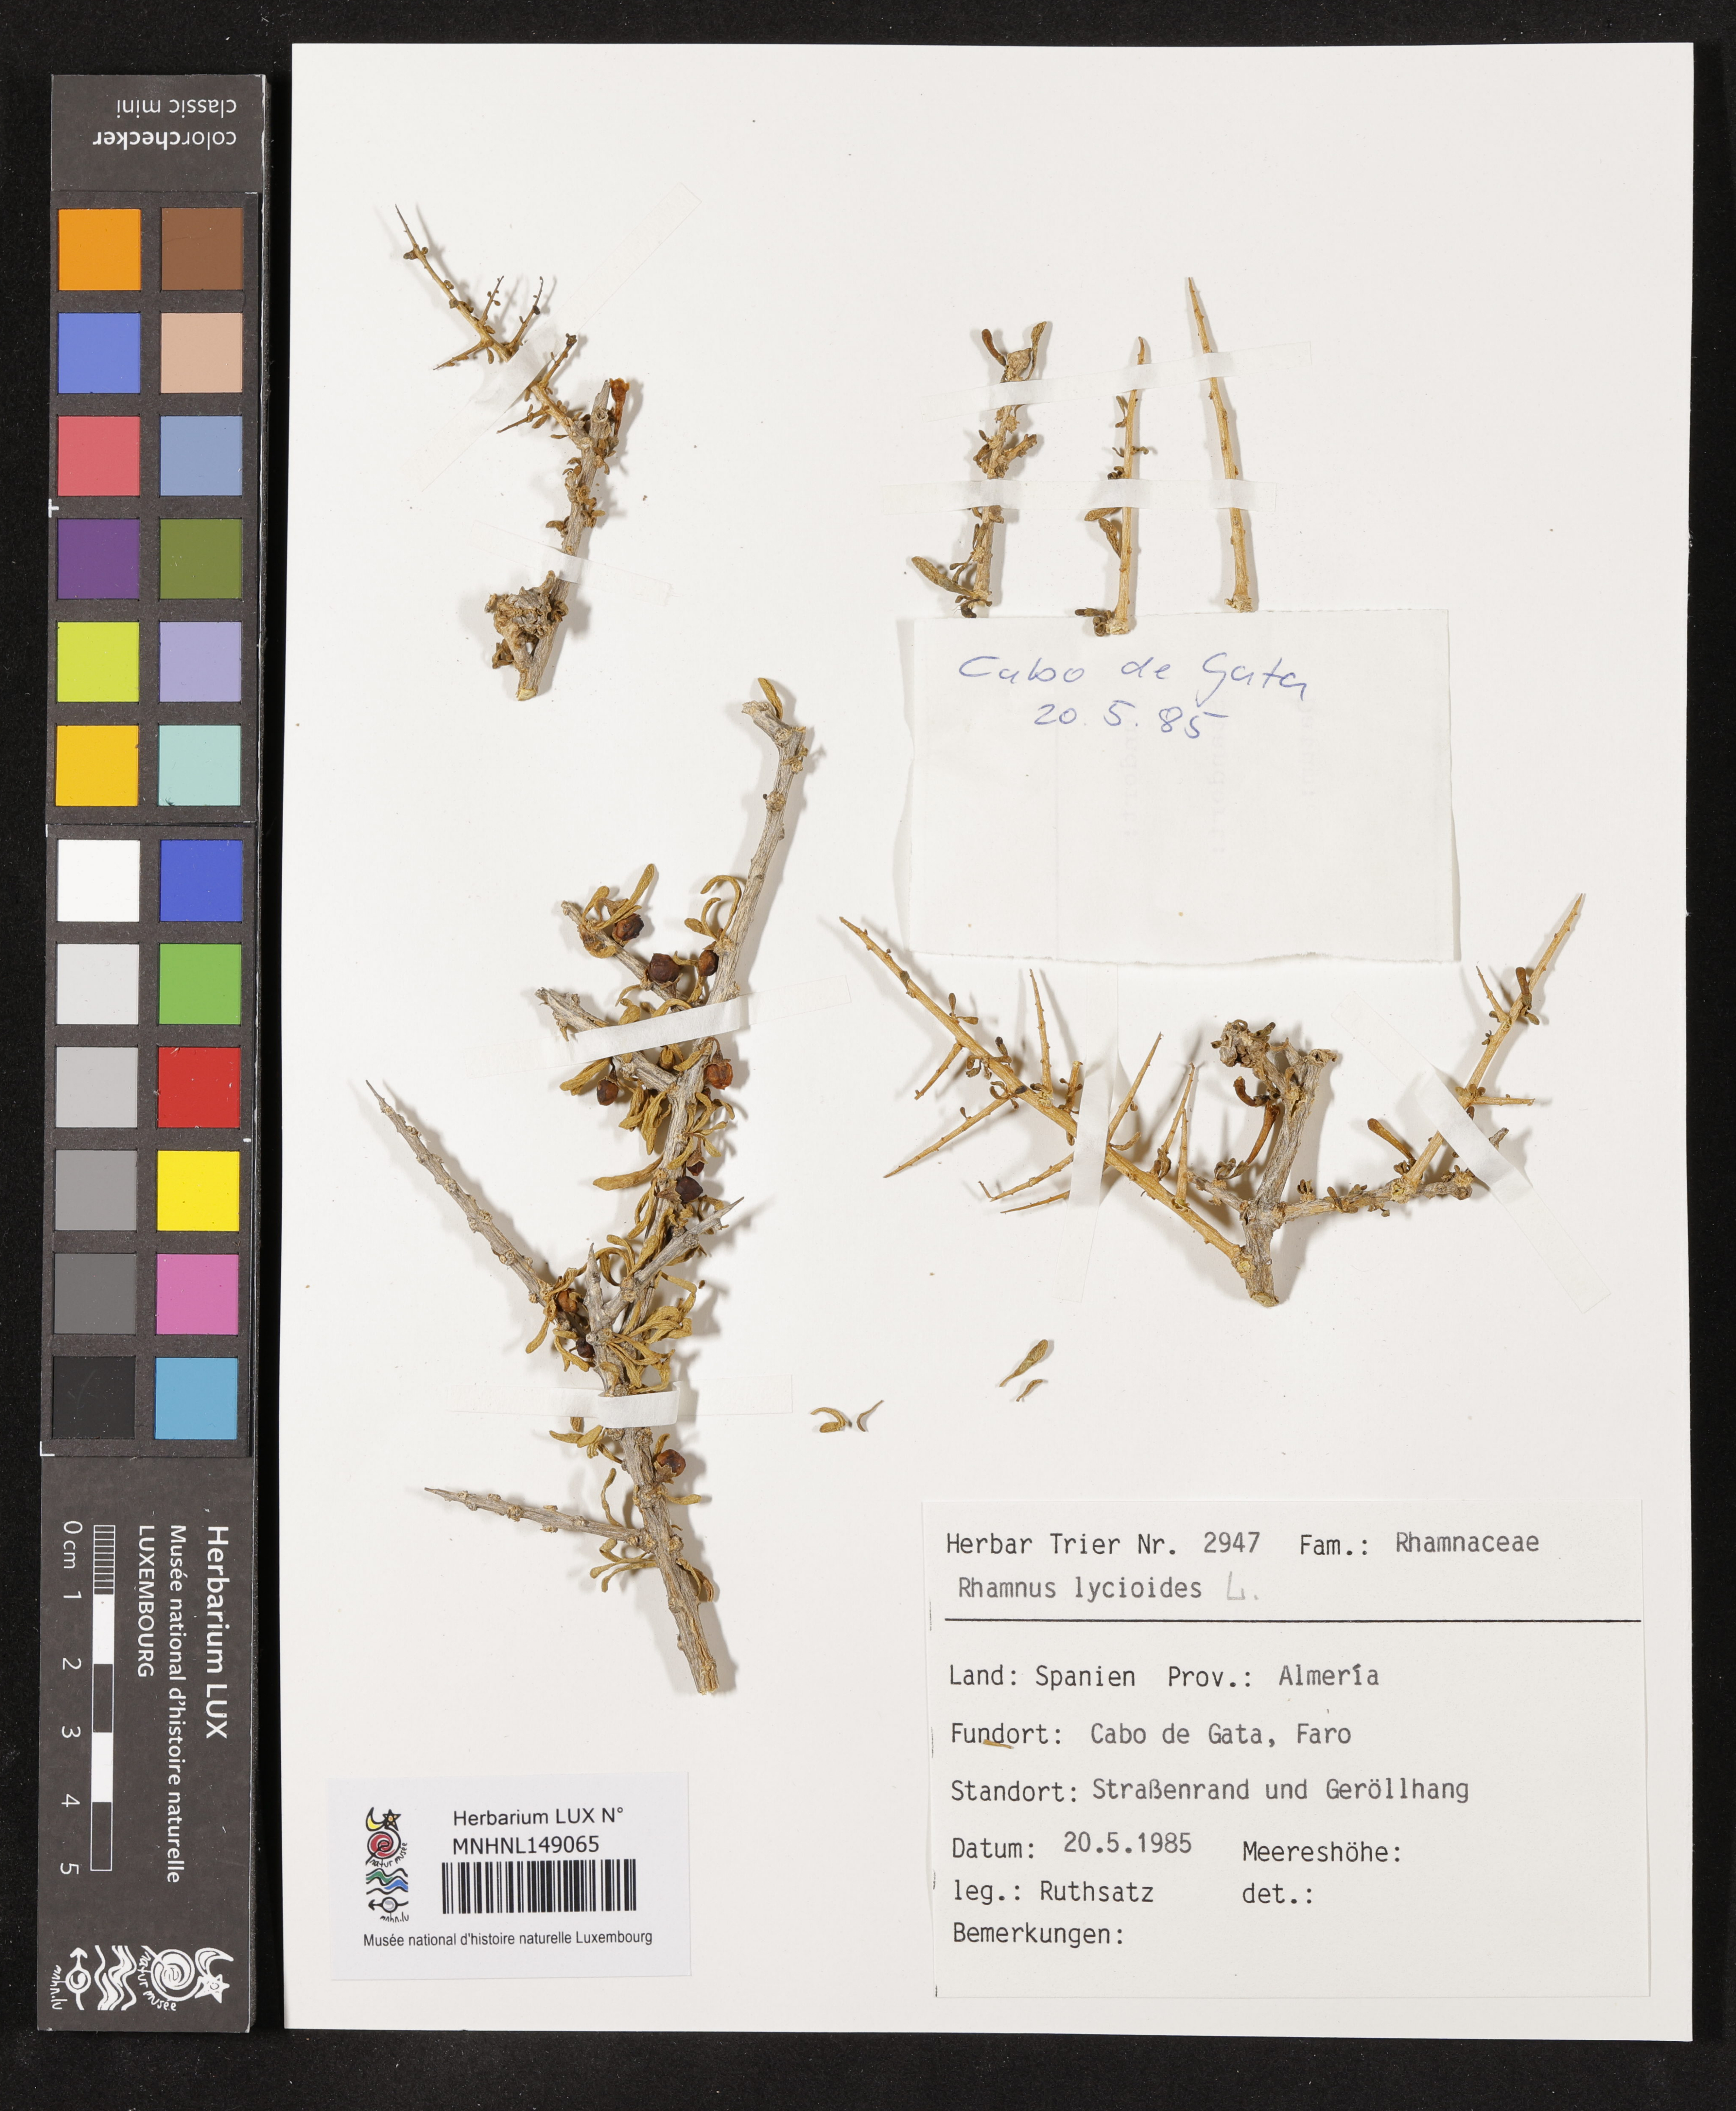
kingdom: Plantae
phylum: Tracheophyta
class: Magnoliopsida
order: Rosales
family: Rhamnaceae
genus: Rhamnus
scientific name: Rhamnus lycioides
